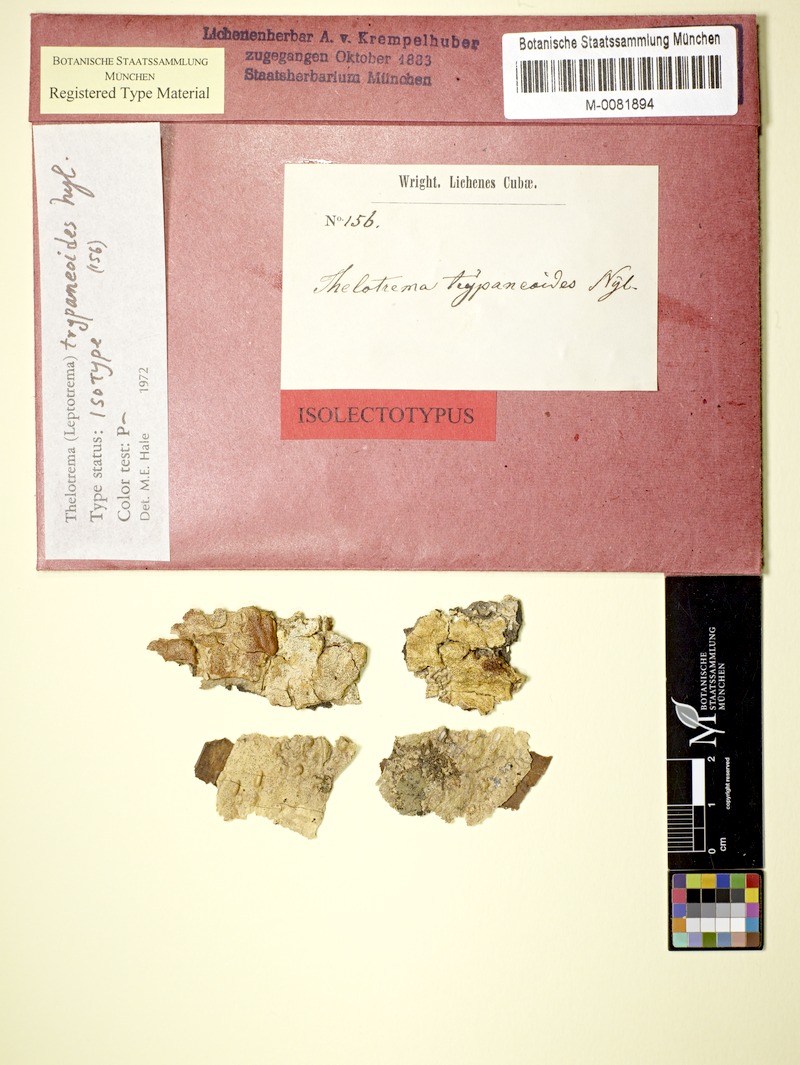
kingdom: Fungi
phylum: Ascomycota
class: Lecanoromycetes
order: Ostropales
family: Graphidaceae
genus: Wirthiotrema
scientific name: Wirthiotrema trypaneoides
